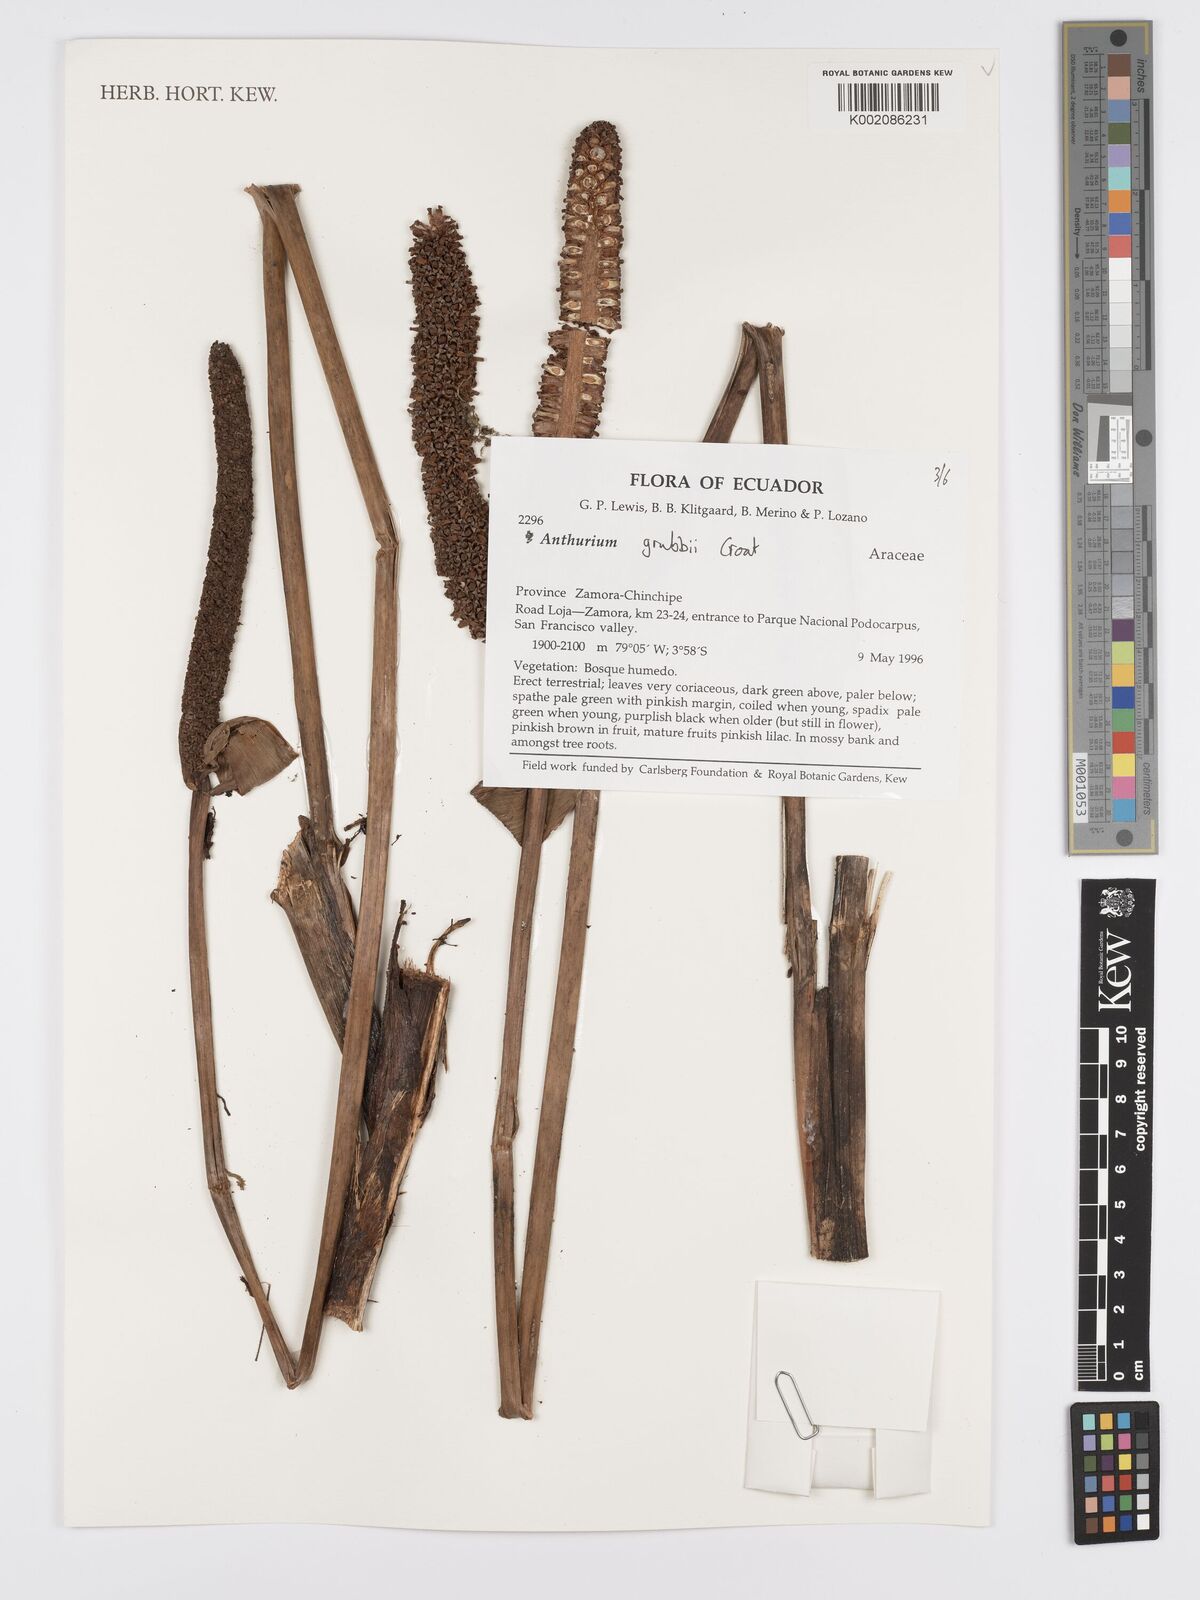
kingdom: Plantae
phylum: Tracheophyta
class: Liliopsida
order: Alismatales
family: Araceae
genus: Anthurium
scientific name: Anthurium
